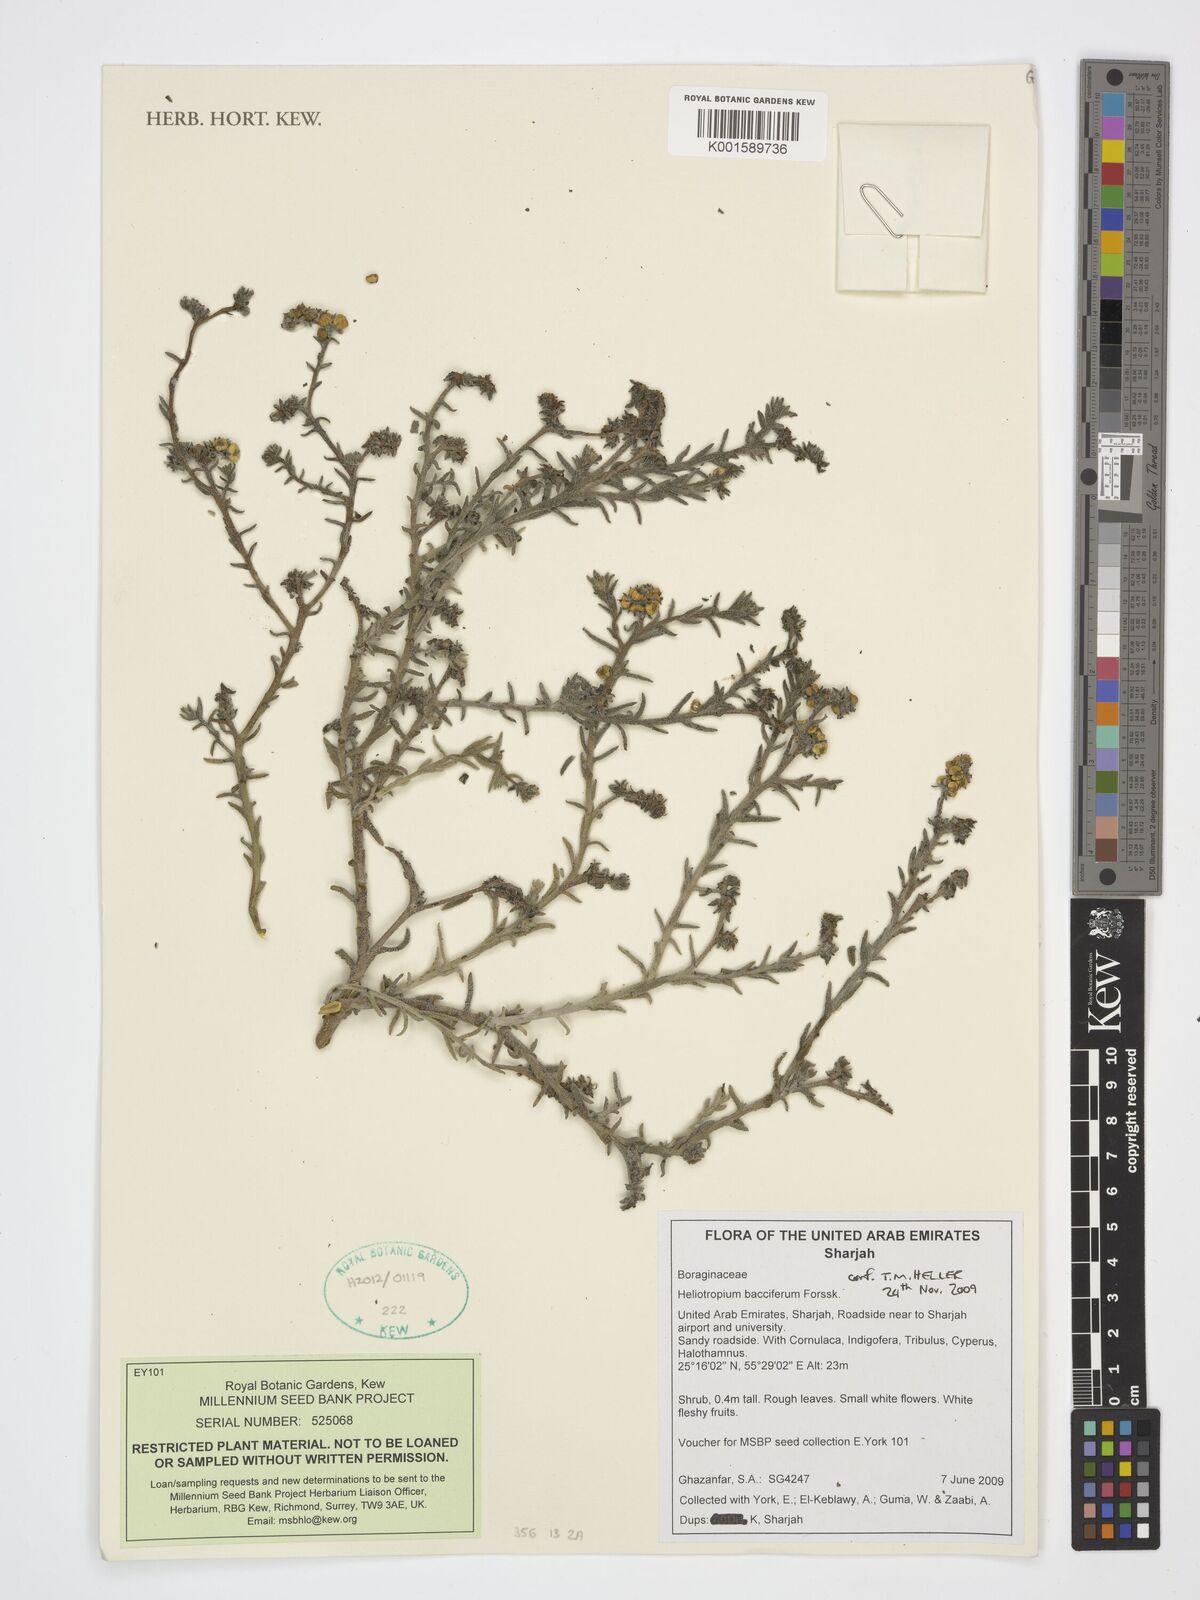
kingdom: Plantae
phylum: Tracheophyta
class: Magnoliopsida
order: Boraginales
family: Heliotropiaceae
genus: Heliotropium
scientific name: Heliotropium bacciferum
